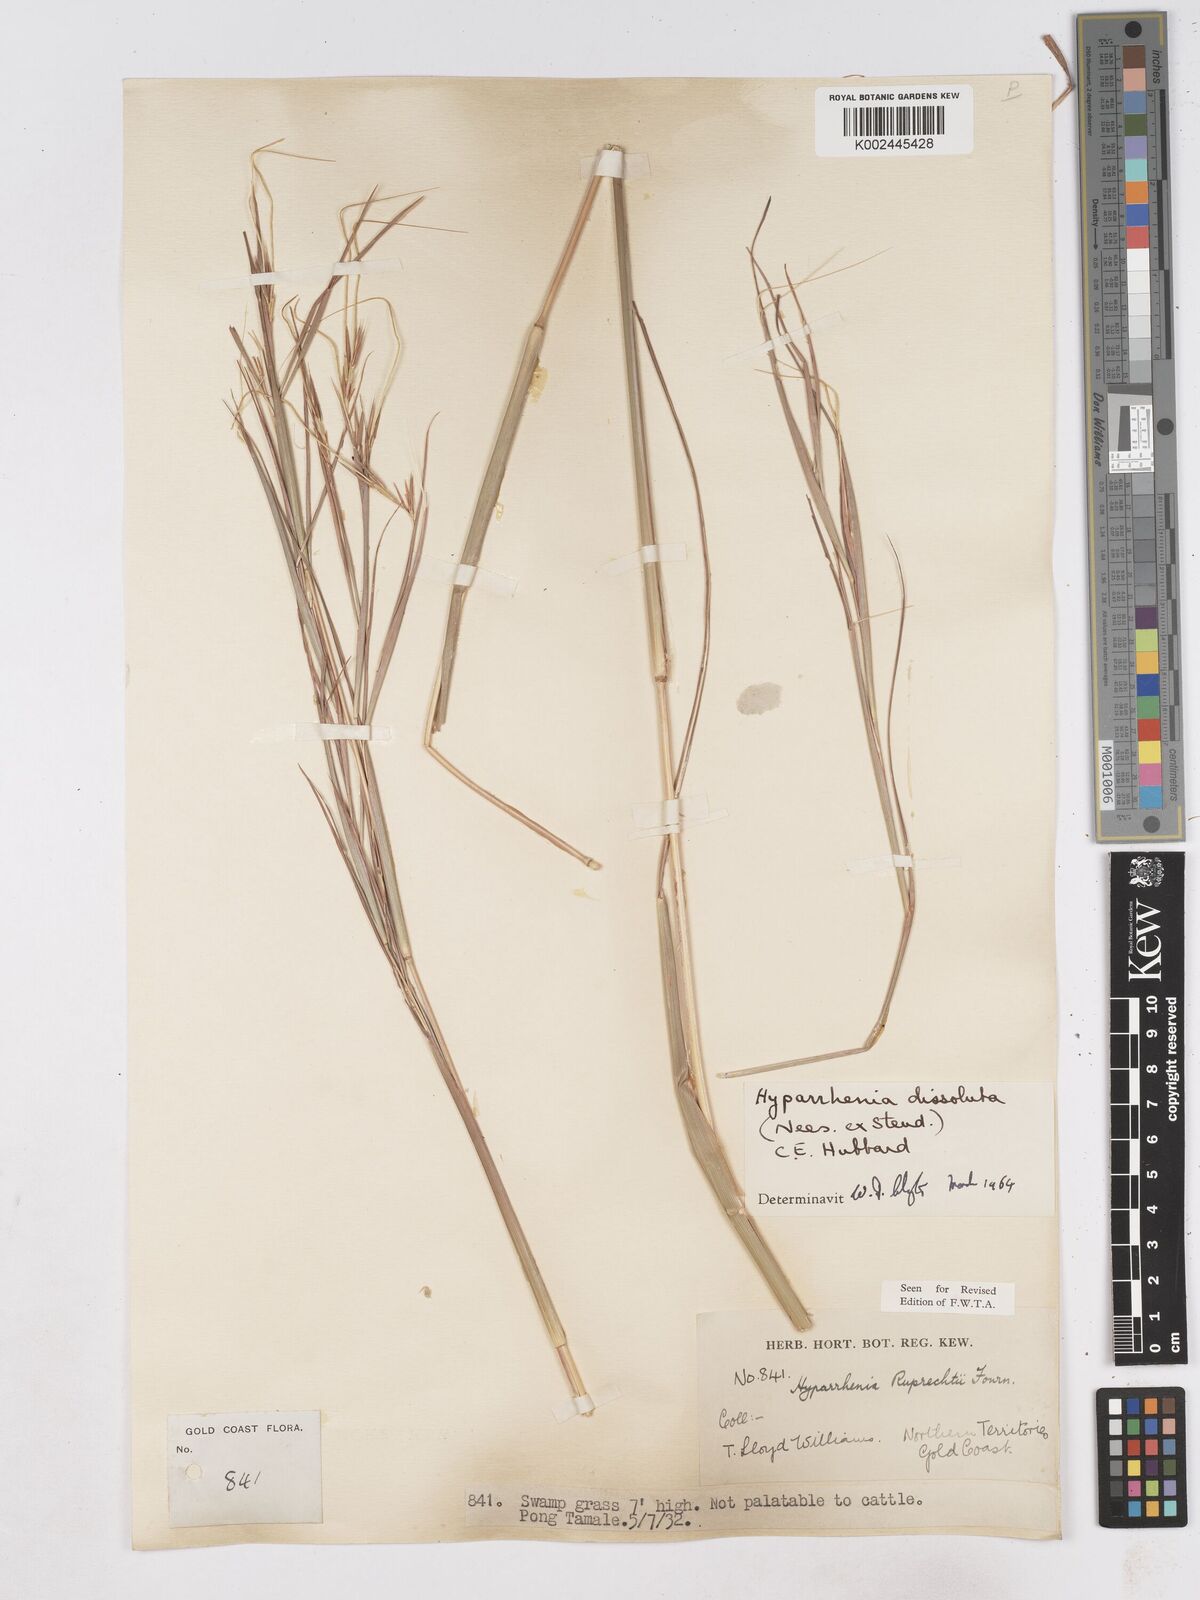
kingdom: Plantae
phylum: Tracheophyta
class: Liliopsida
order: Poales
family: Poaceae
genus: Hyperthelia
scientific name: Hyperthelia dissoluta
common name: Yellow thatching grass
